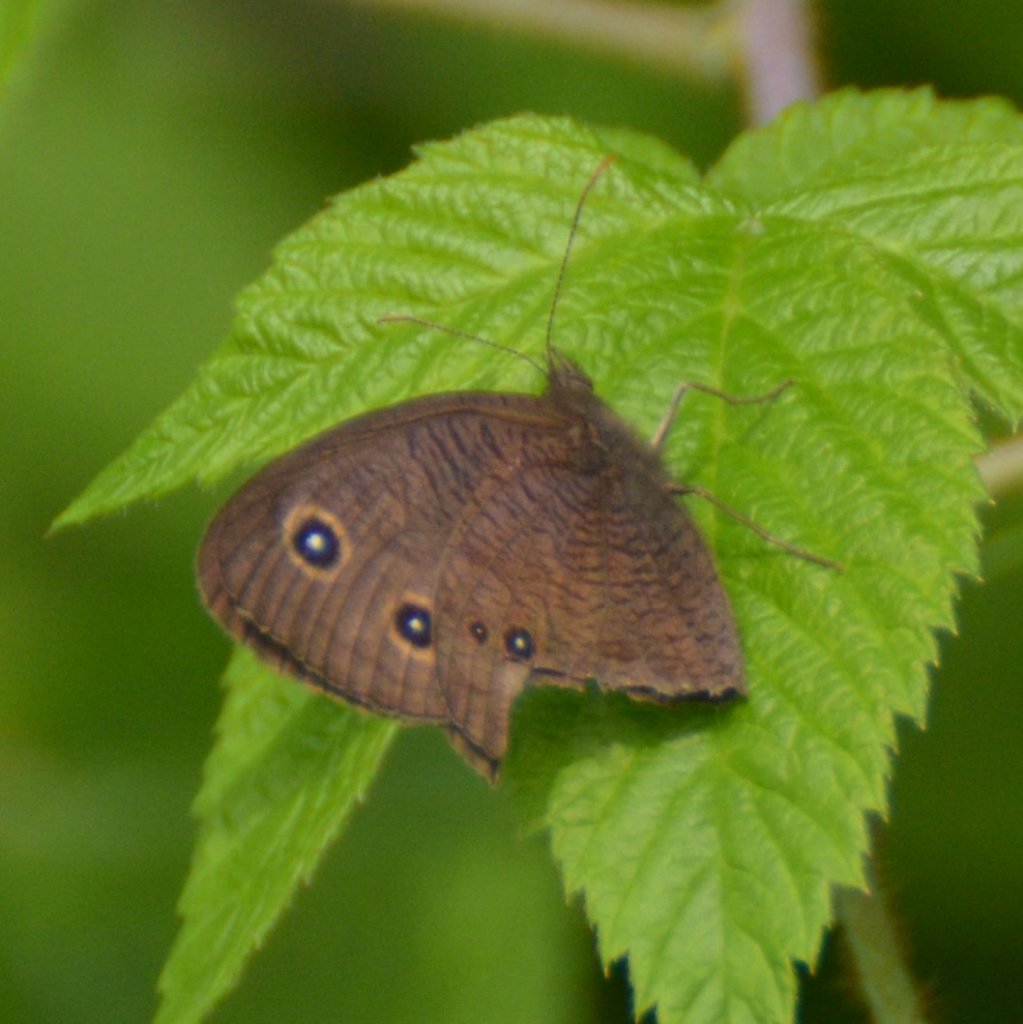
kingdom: Animalia
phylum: Arthropoda
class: Insecta
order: Lepidoptera
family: Nymphalidae
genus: Cercyonis
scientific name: Cercyonis pegala
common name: Common Wood-Nymph
